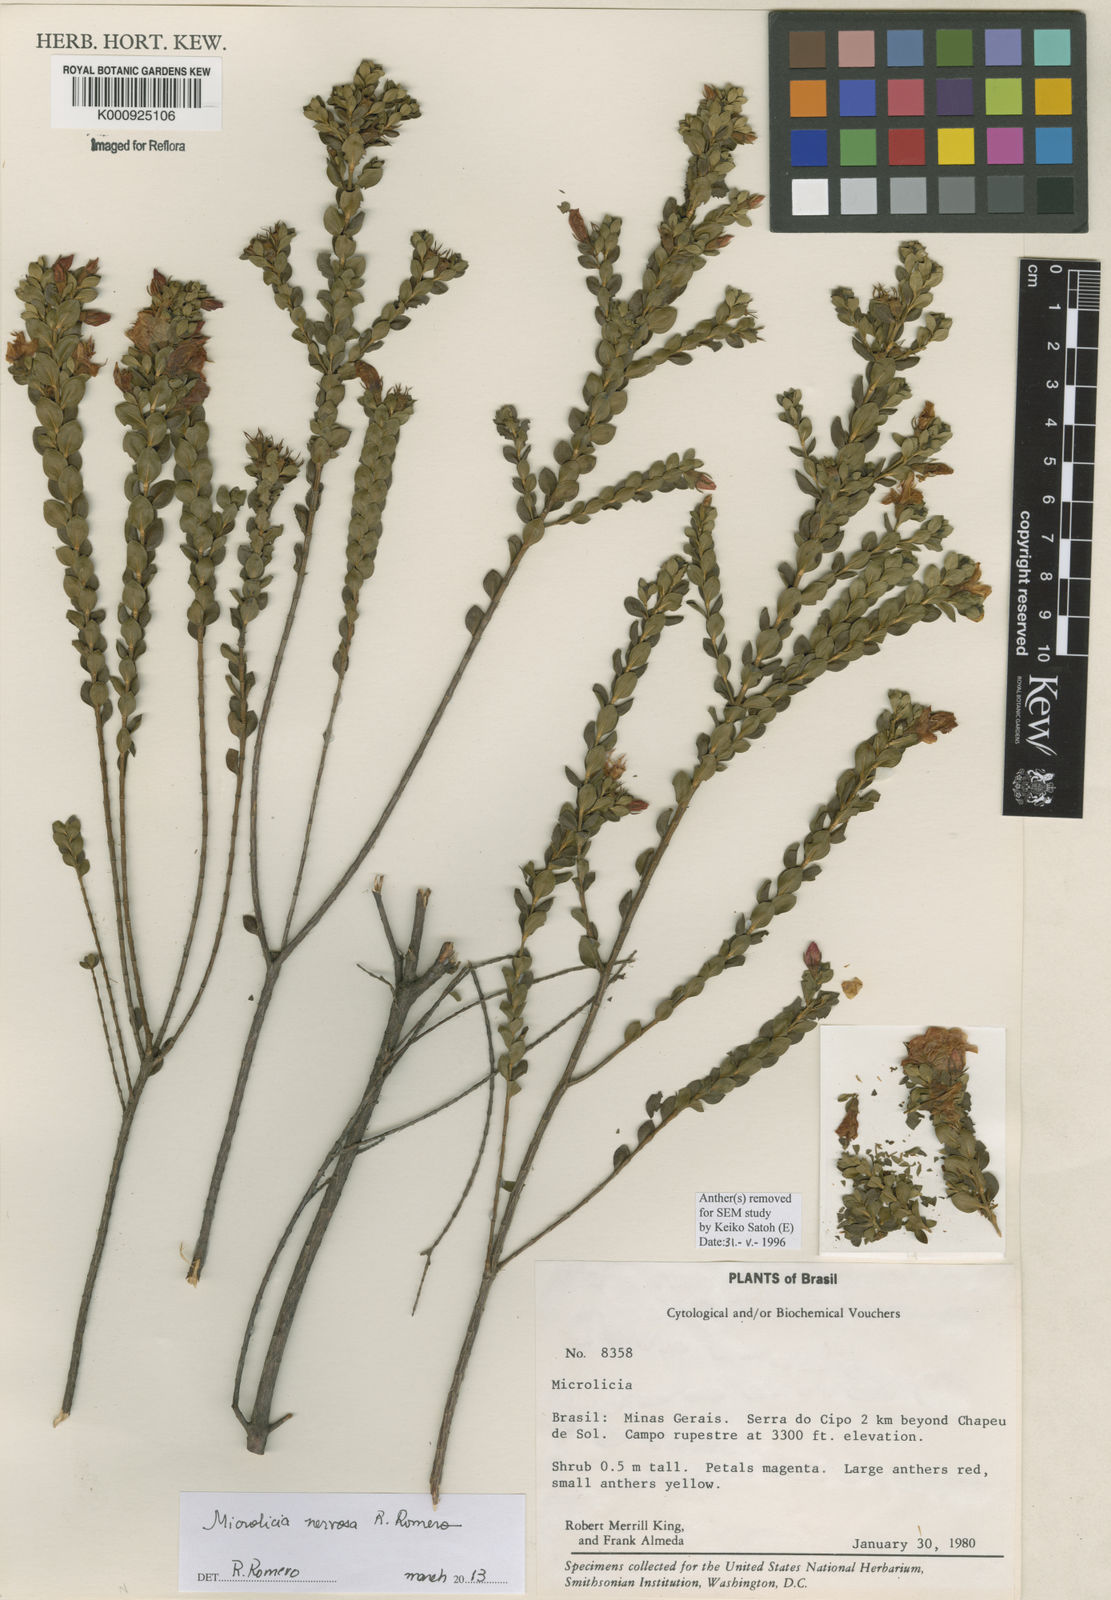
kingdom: Plantae
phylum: Tracheophyta
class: Magnoliopsida
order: Myrtales
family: Melastomataceae
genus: Microlicia
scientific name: Microlicia nervosa
